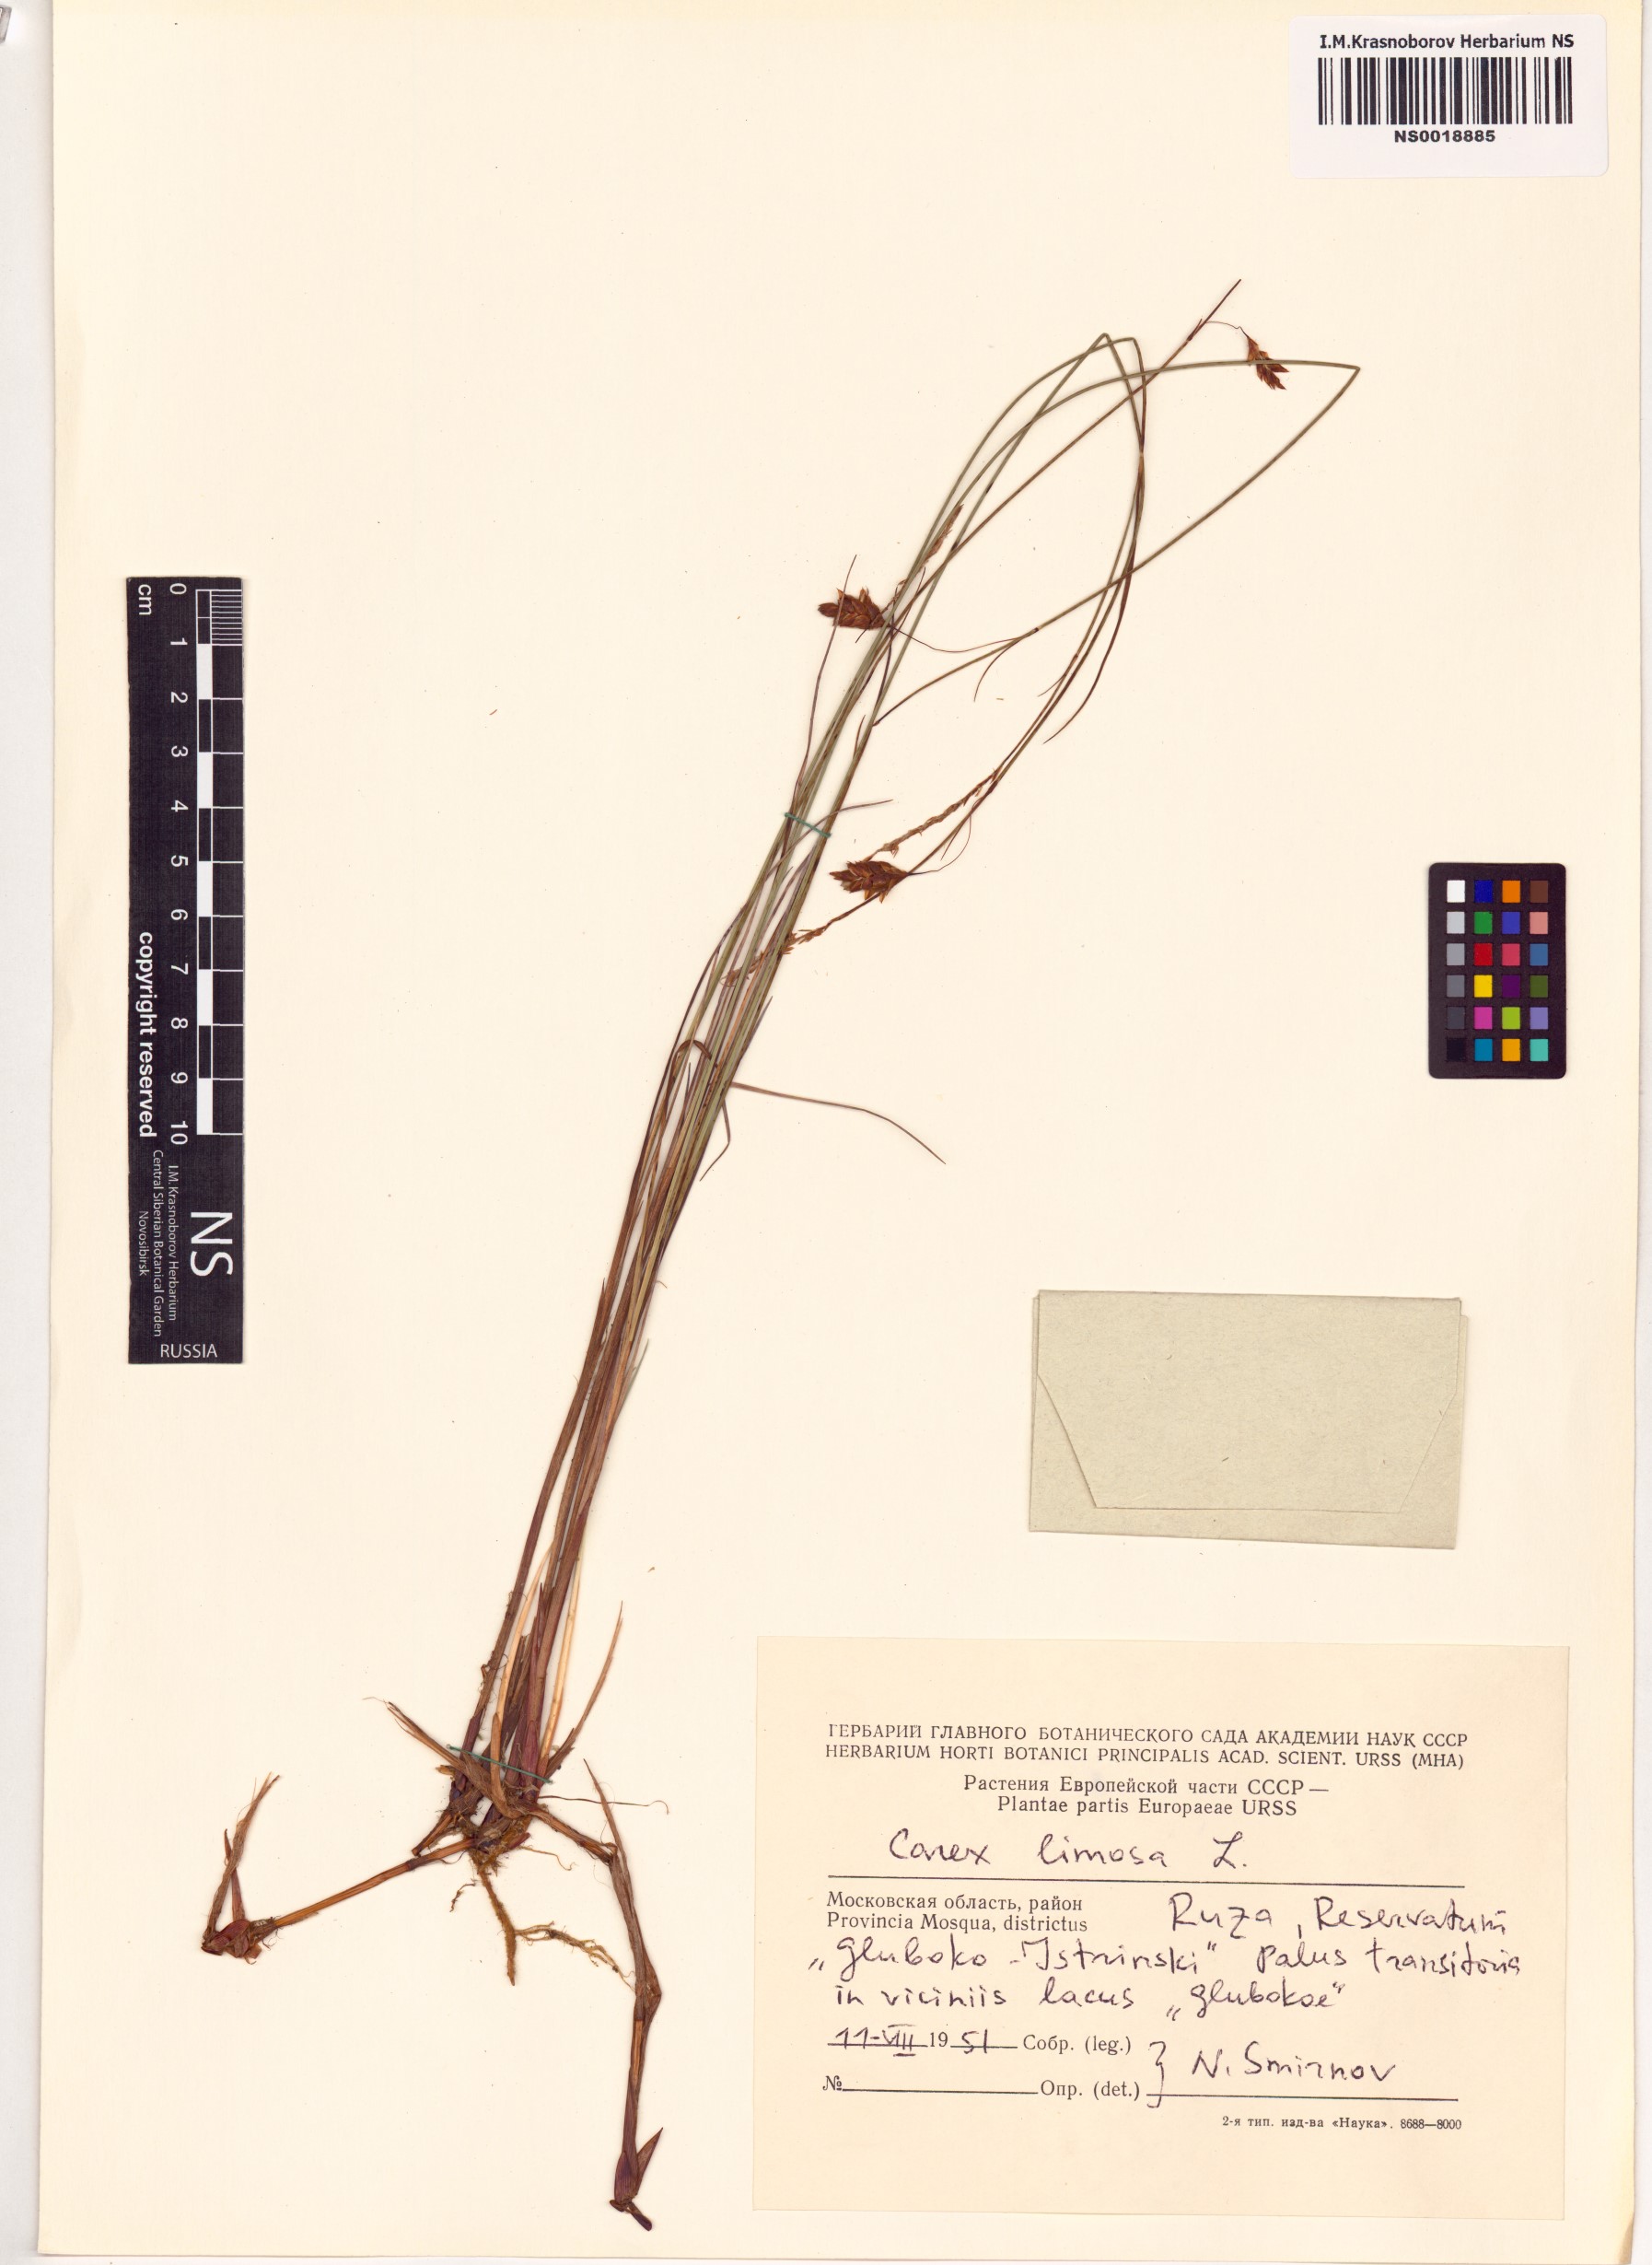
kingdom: Plantae
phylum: Tracheophyta
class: Liliopsida
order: Poales
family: Cyperaceae
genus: Carex
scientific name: Carex limosa
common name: Bog sedge
